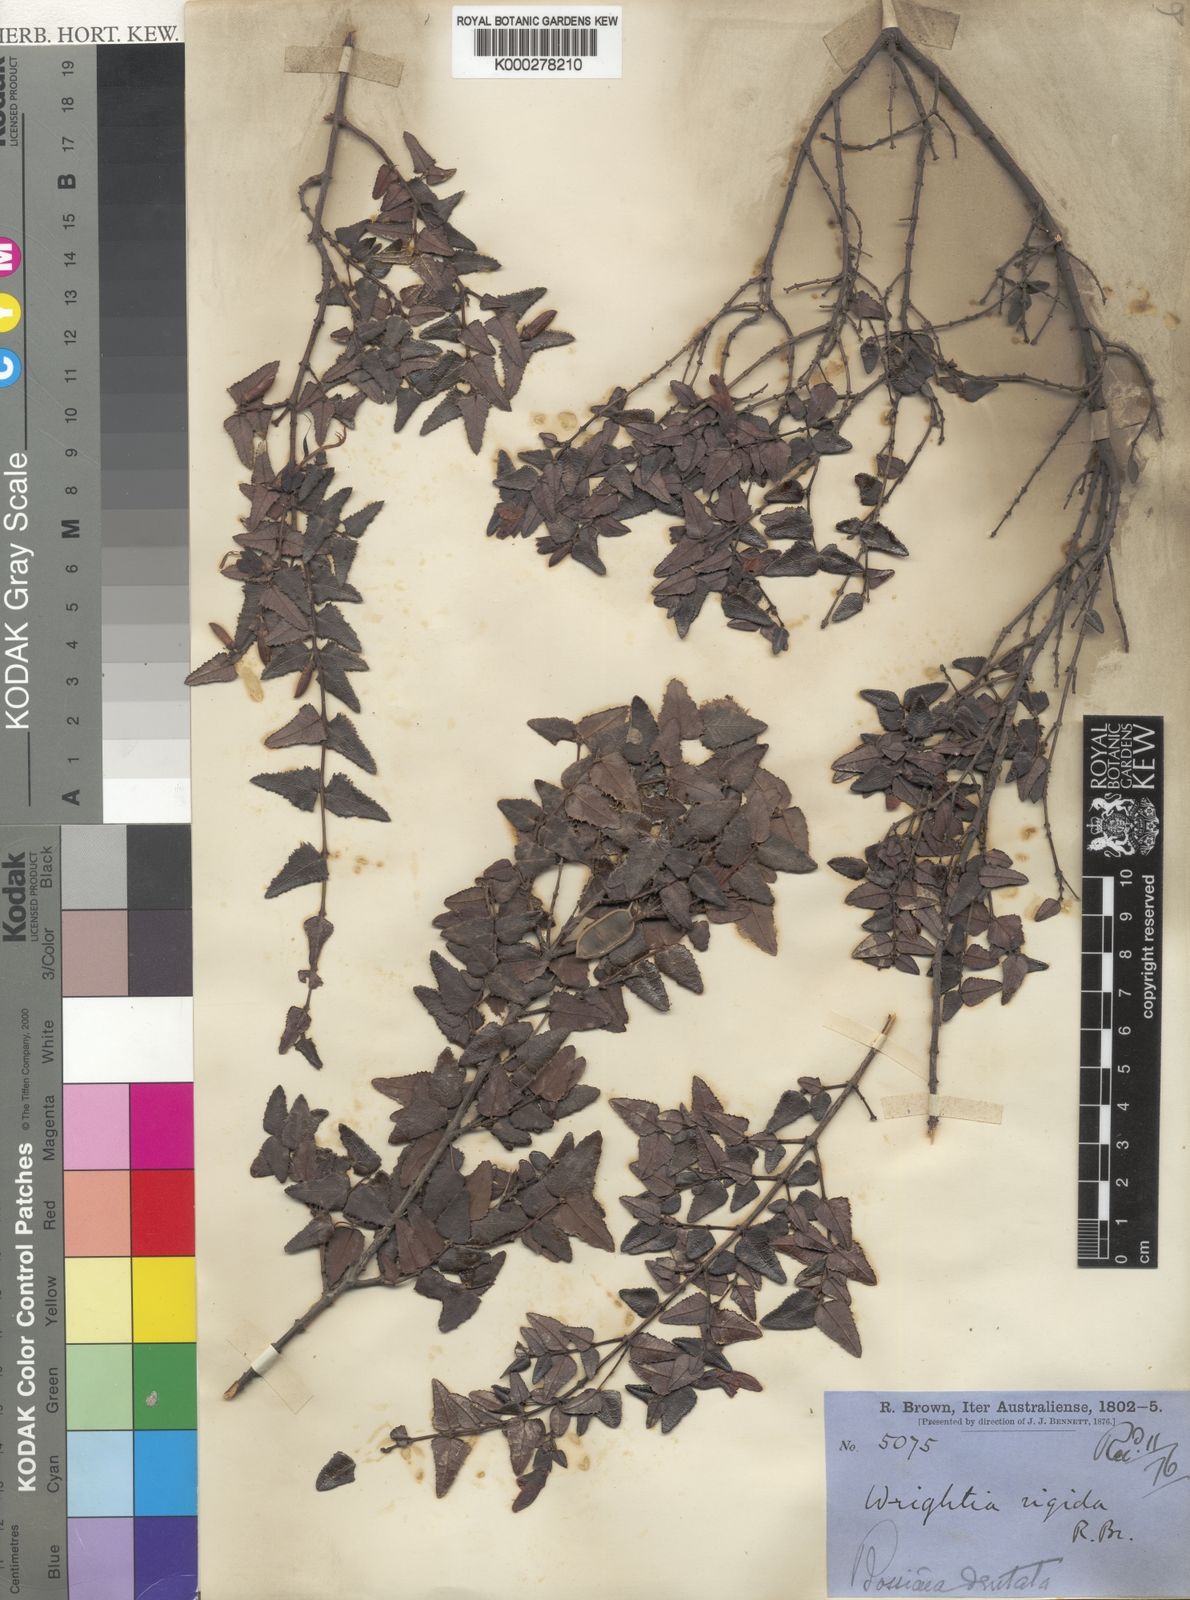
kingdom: Plantae
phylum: Tracheophyta
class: Magnoliopsida
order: Fabales
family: Fabaceae
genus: Bossiaea
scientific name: Bossiaea dentata
